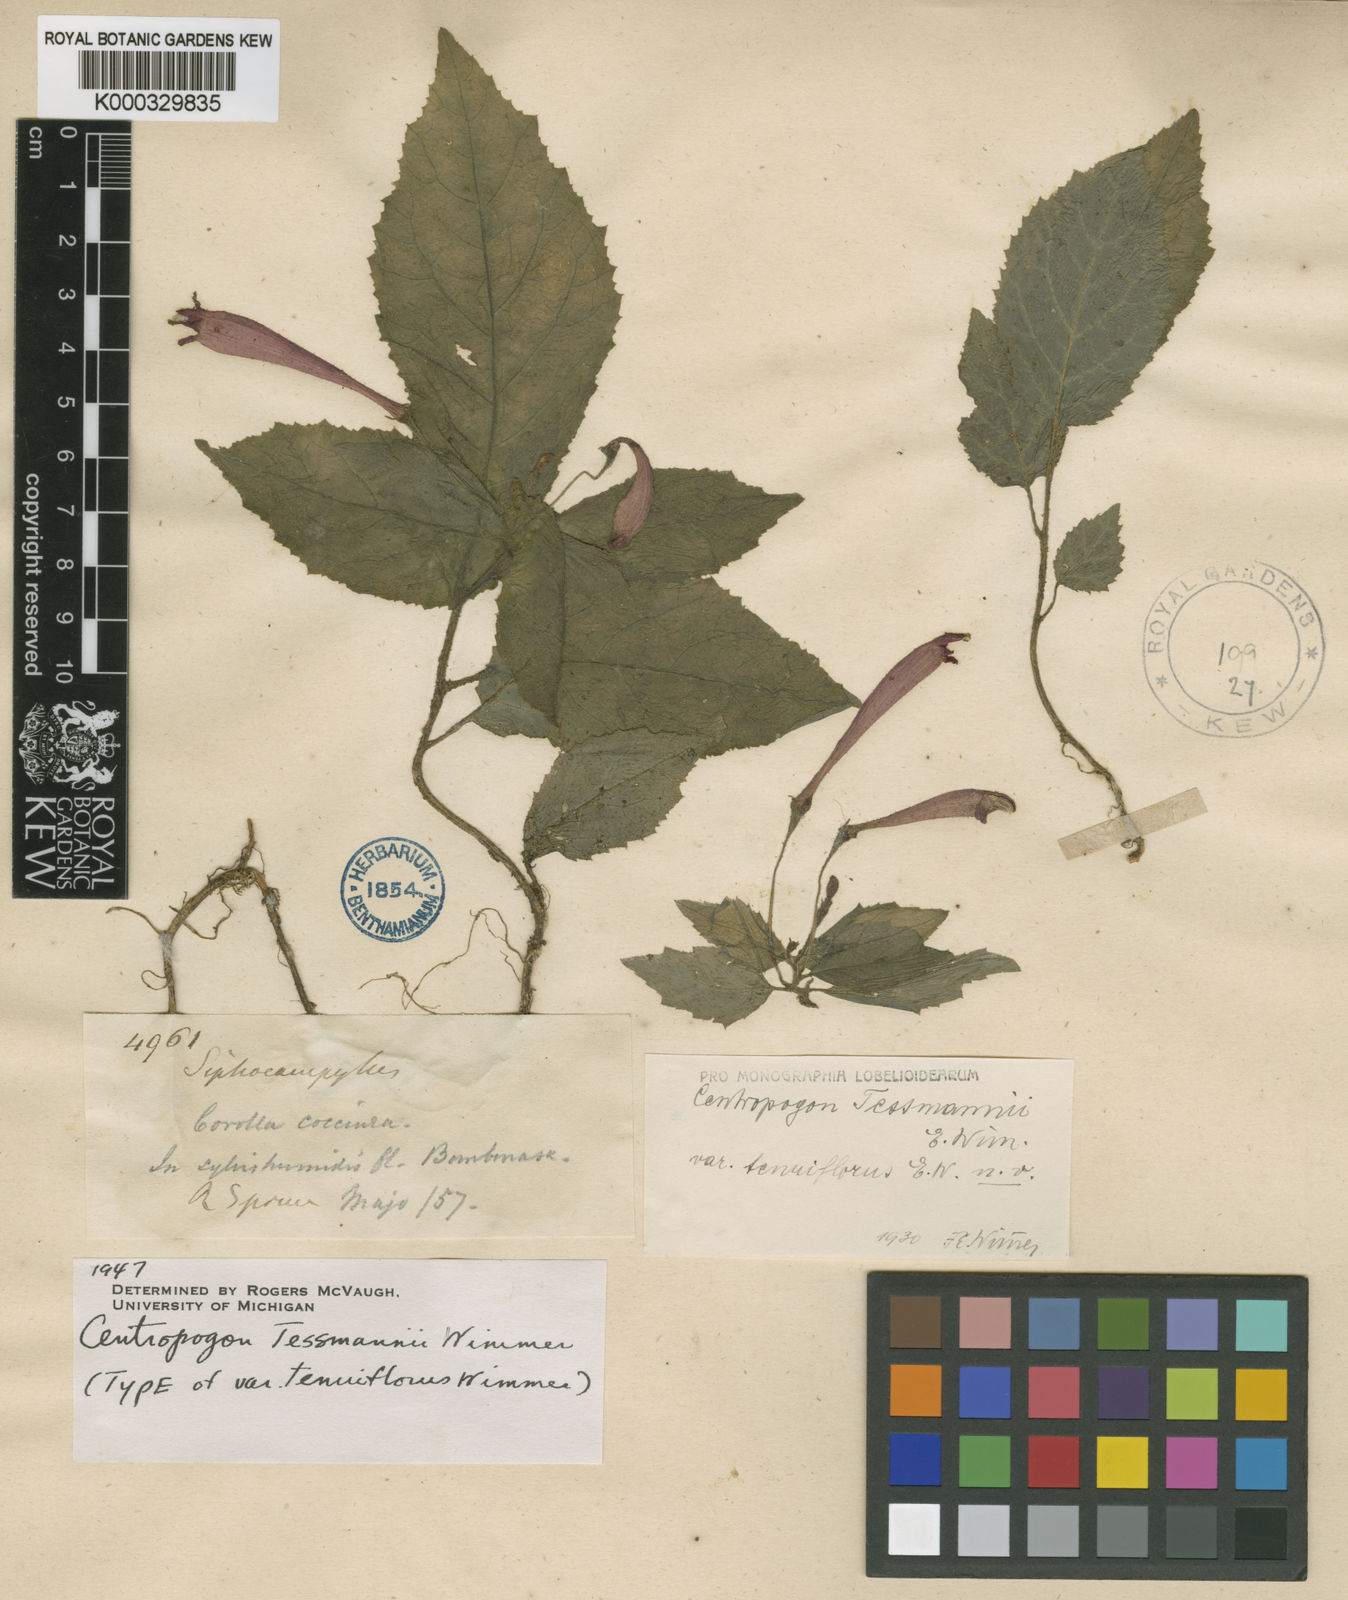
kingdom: Plantae
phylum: Tracheophyta
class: Magnoliopsida
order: Asterales
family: Campanulaceae
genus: Centropogon
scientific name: Centropogon tessmannii
